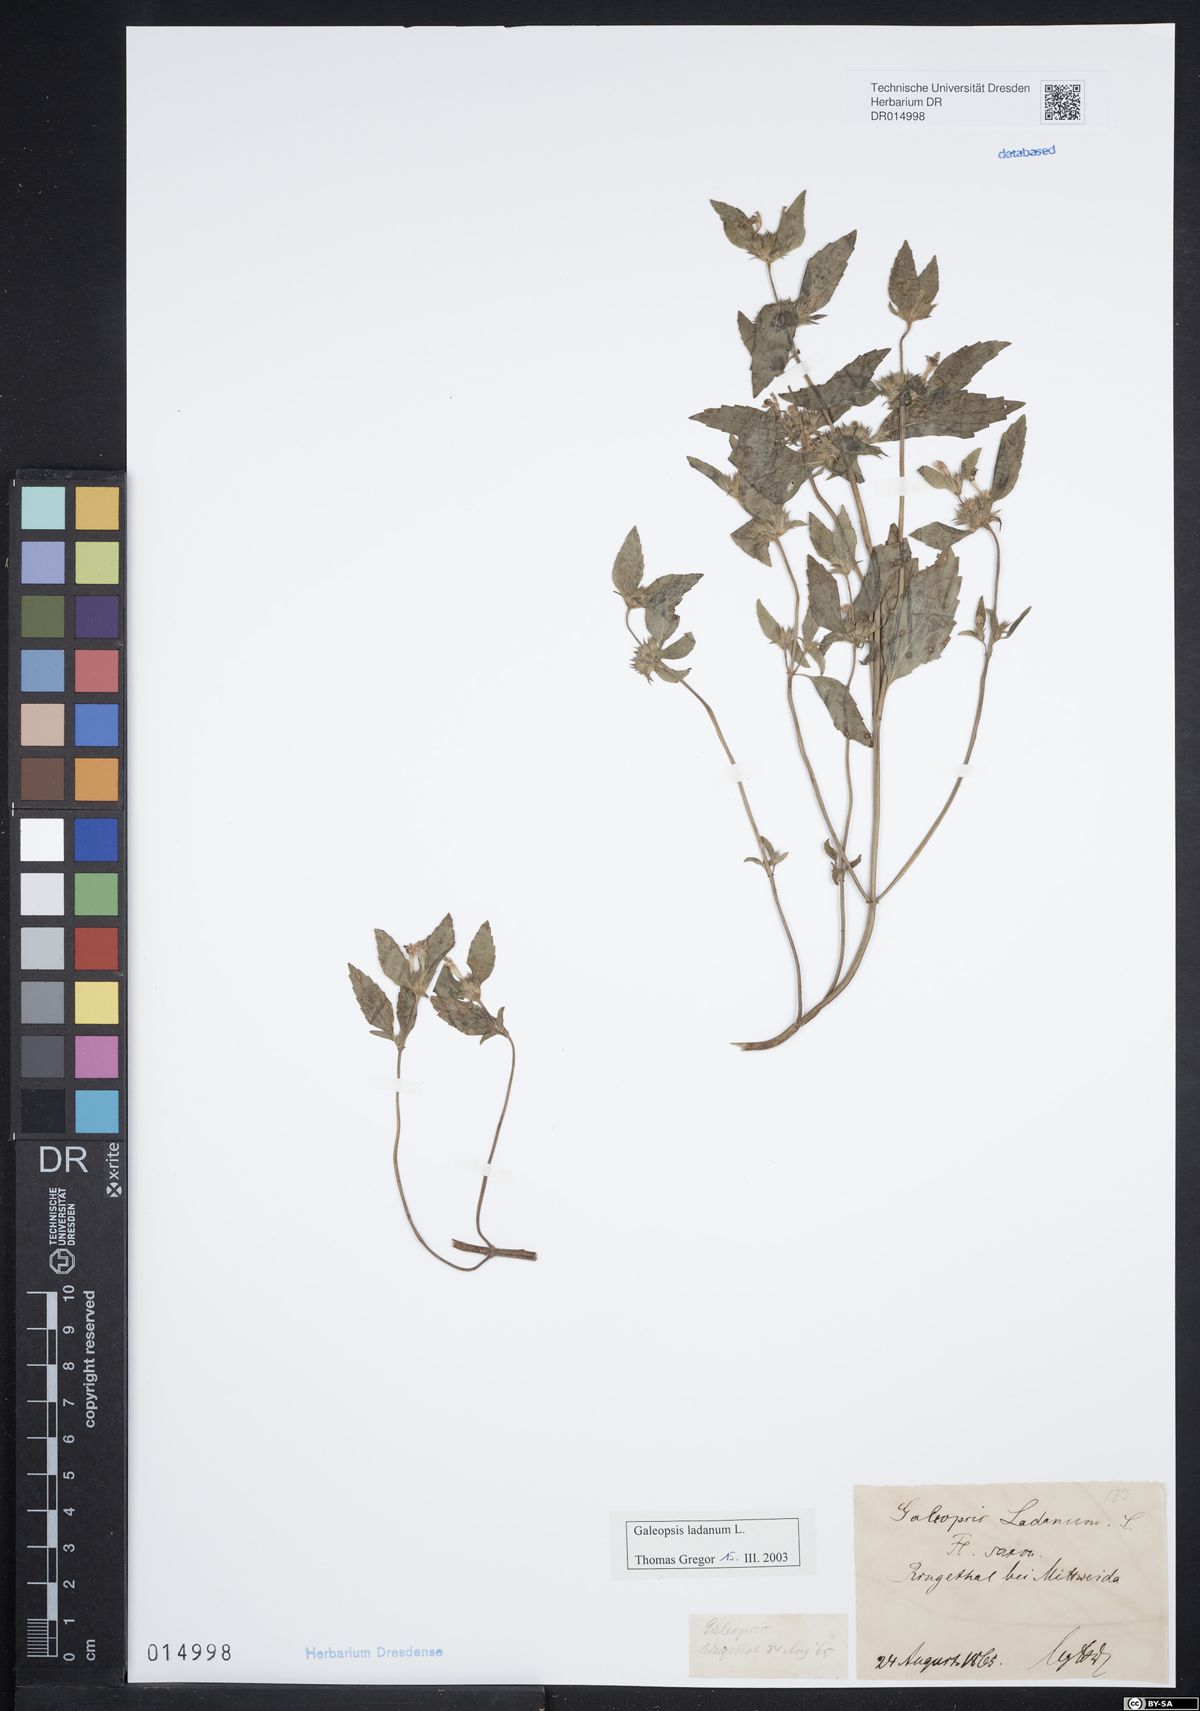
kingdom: Plantae
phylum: Tracheophyta
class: Magnoliopsida
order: Lamiales
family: Lamiaceae
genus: Galeopsis
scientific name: Galeopsis ladanum
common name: Broad-leaved hemp-nettle
